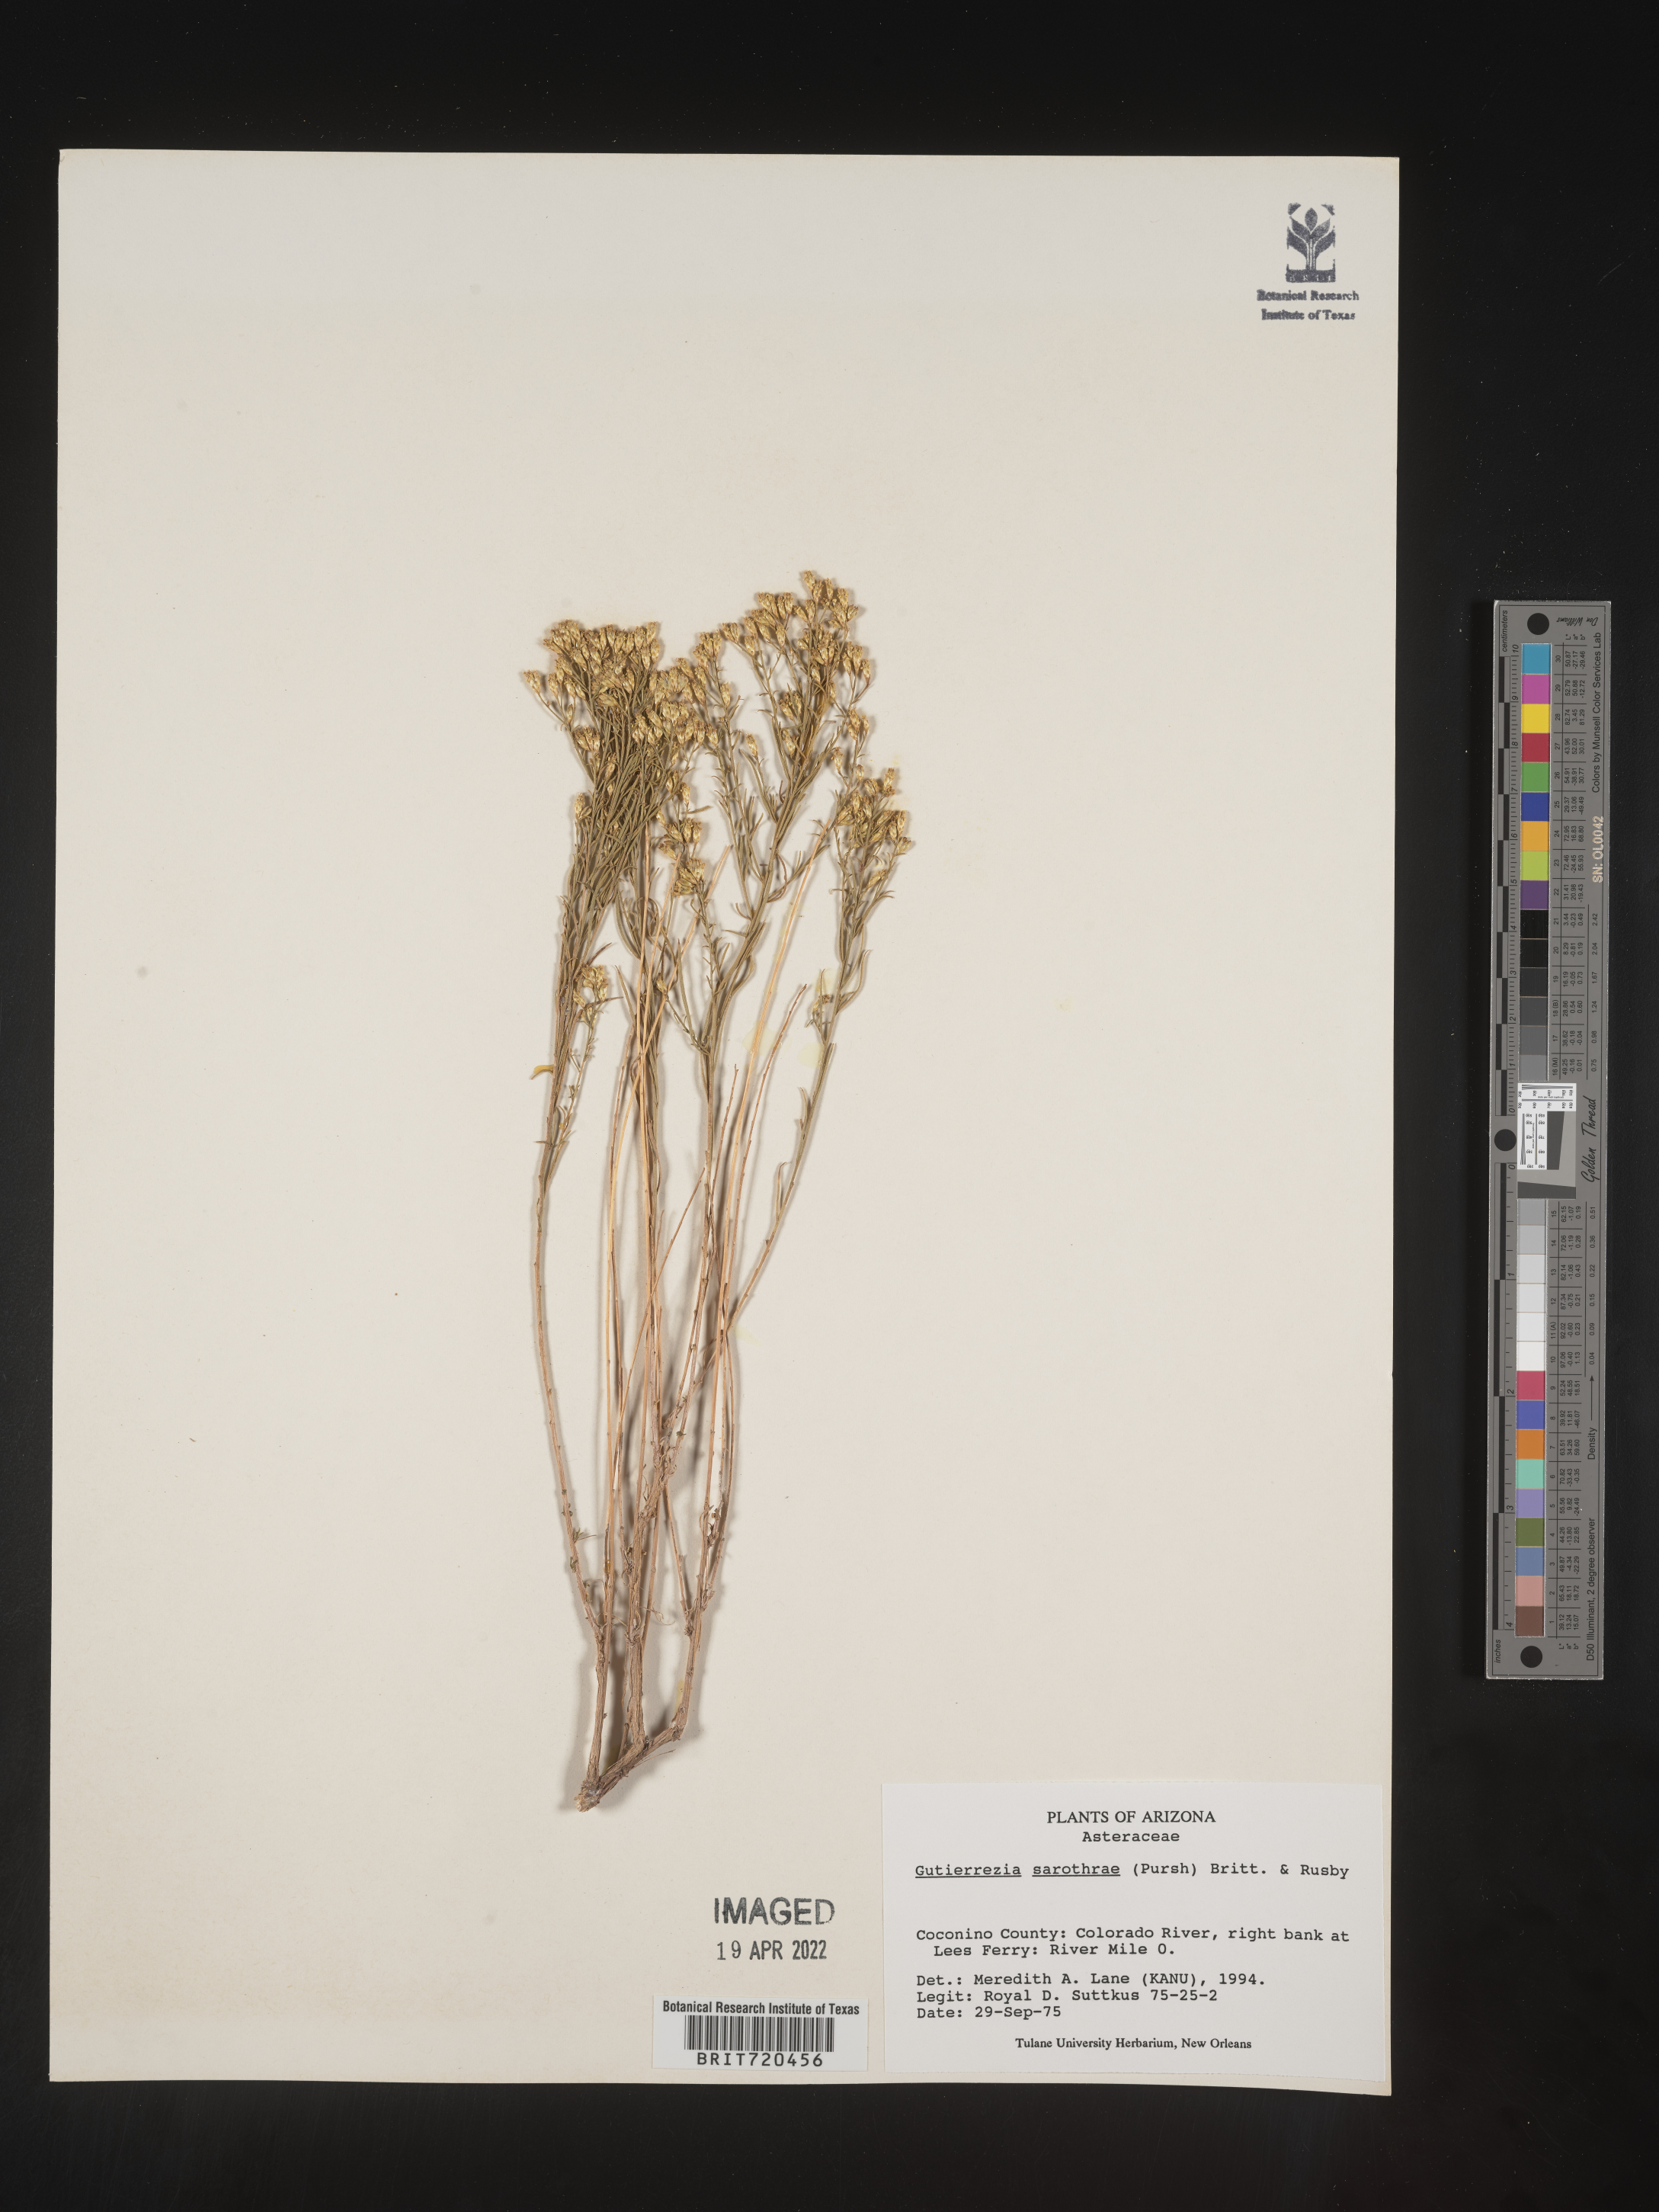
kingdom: Plantae
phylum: Tracheophyta
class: Magnoliopsida
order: Asterales
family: Asteraceae
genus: Gutierrezia
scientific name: Gutierrezia sarothrae
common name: Broom snakeweed
